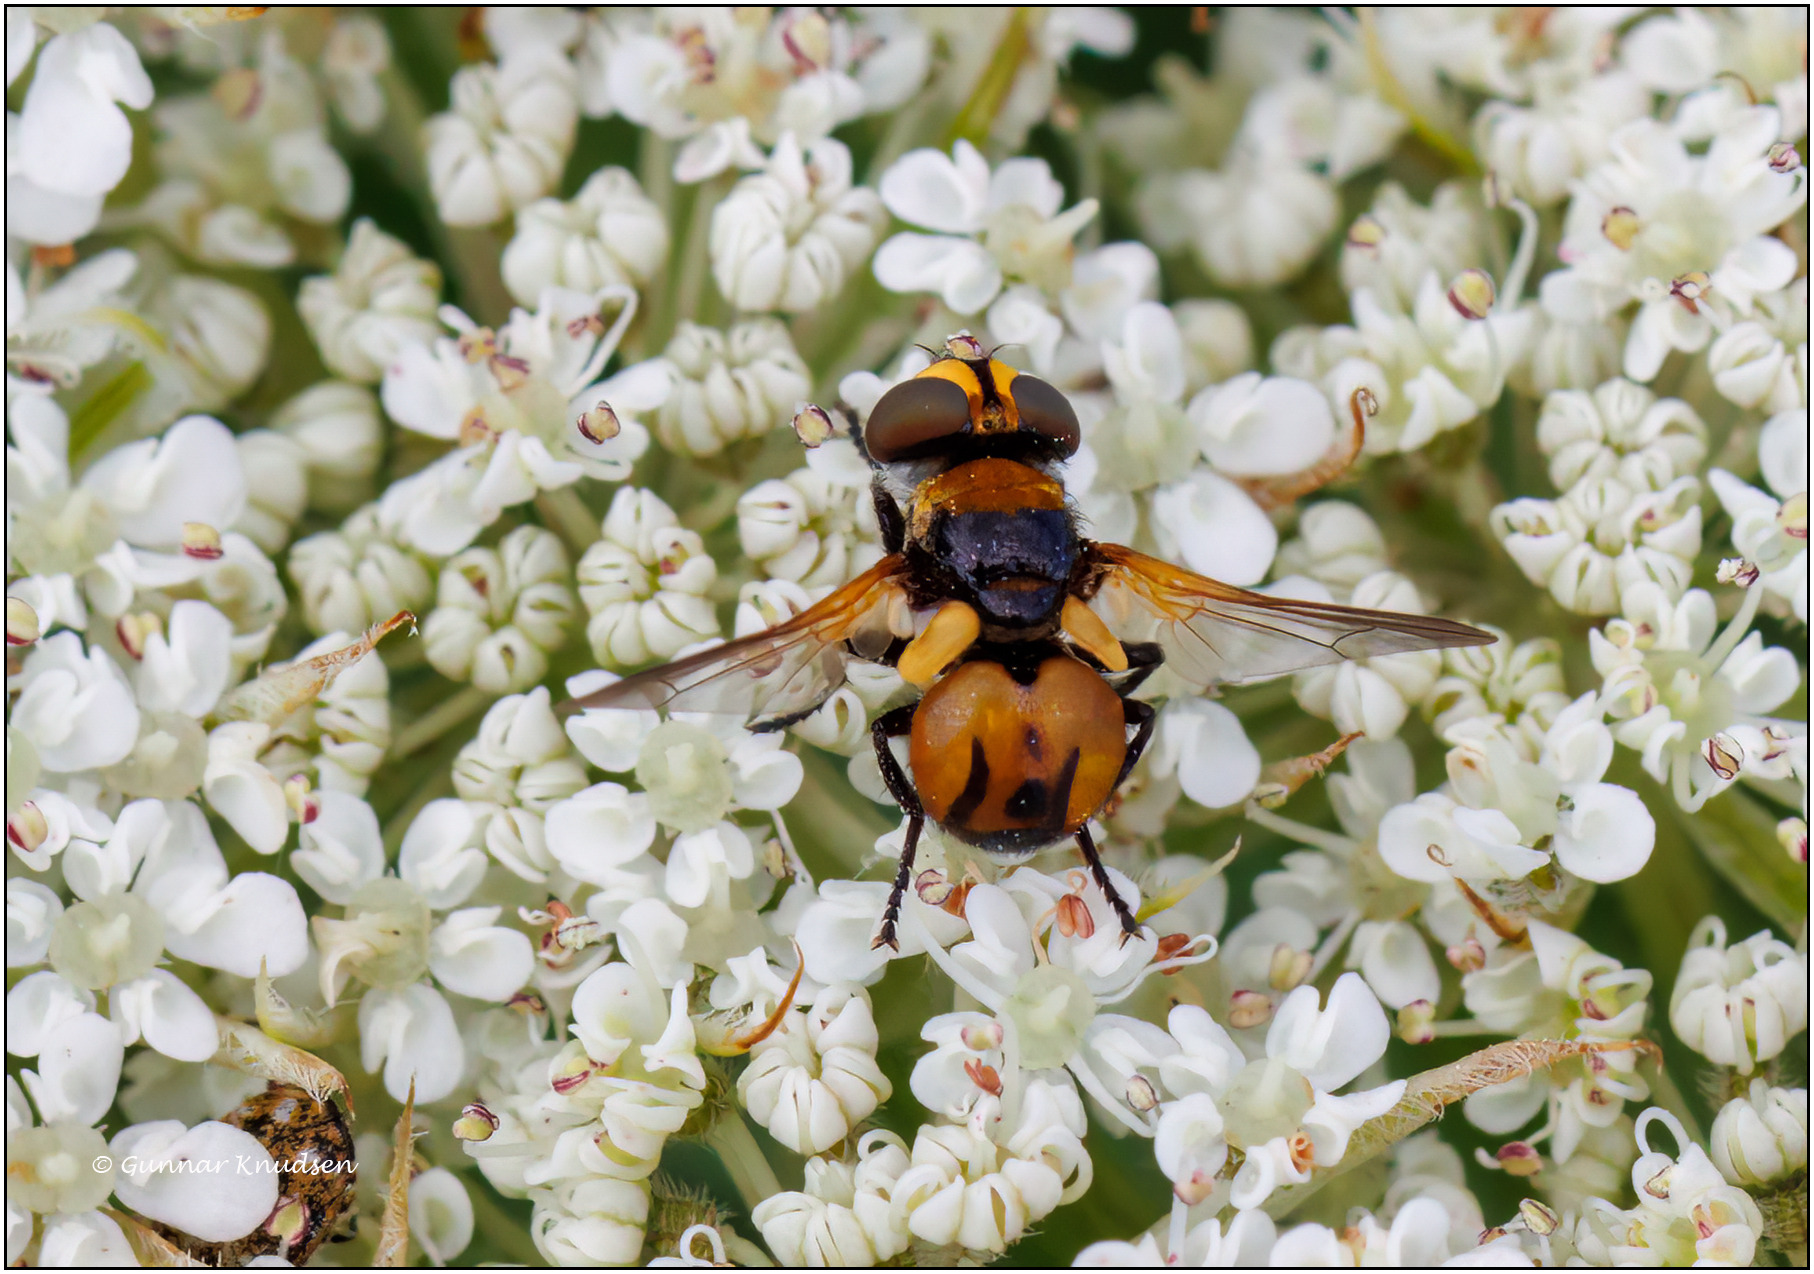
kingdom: Animalia
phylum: Arthropoda
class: Insecta
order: Diptera
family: Tachinidae
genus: Cistogaster
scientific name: Cistogaster globosa
